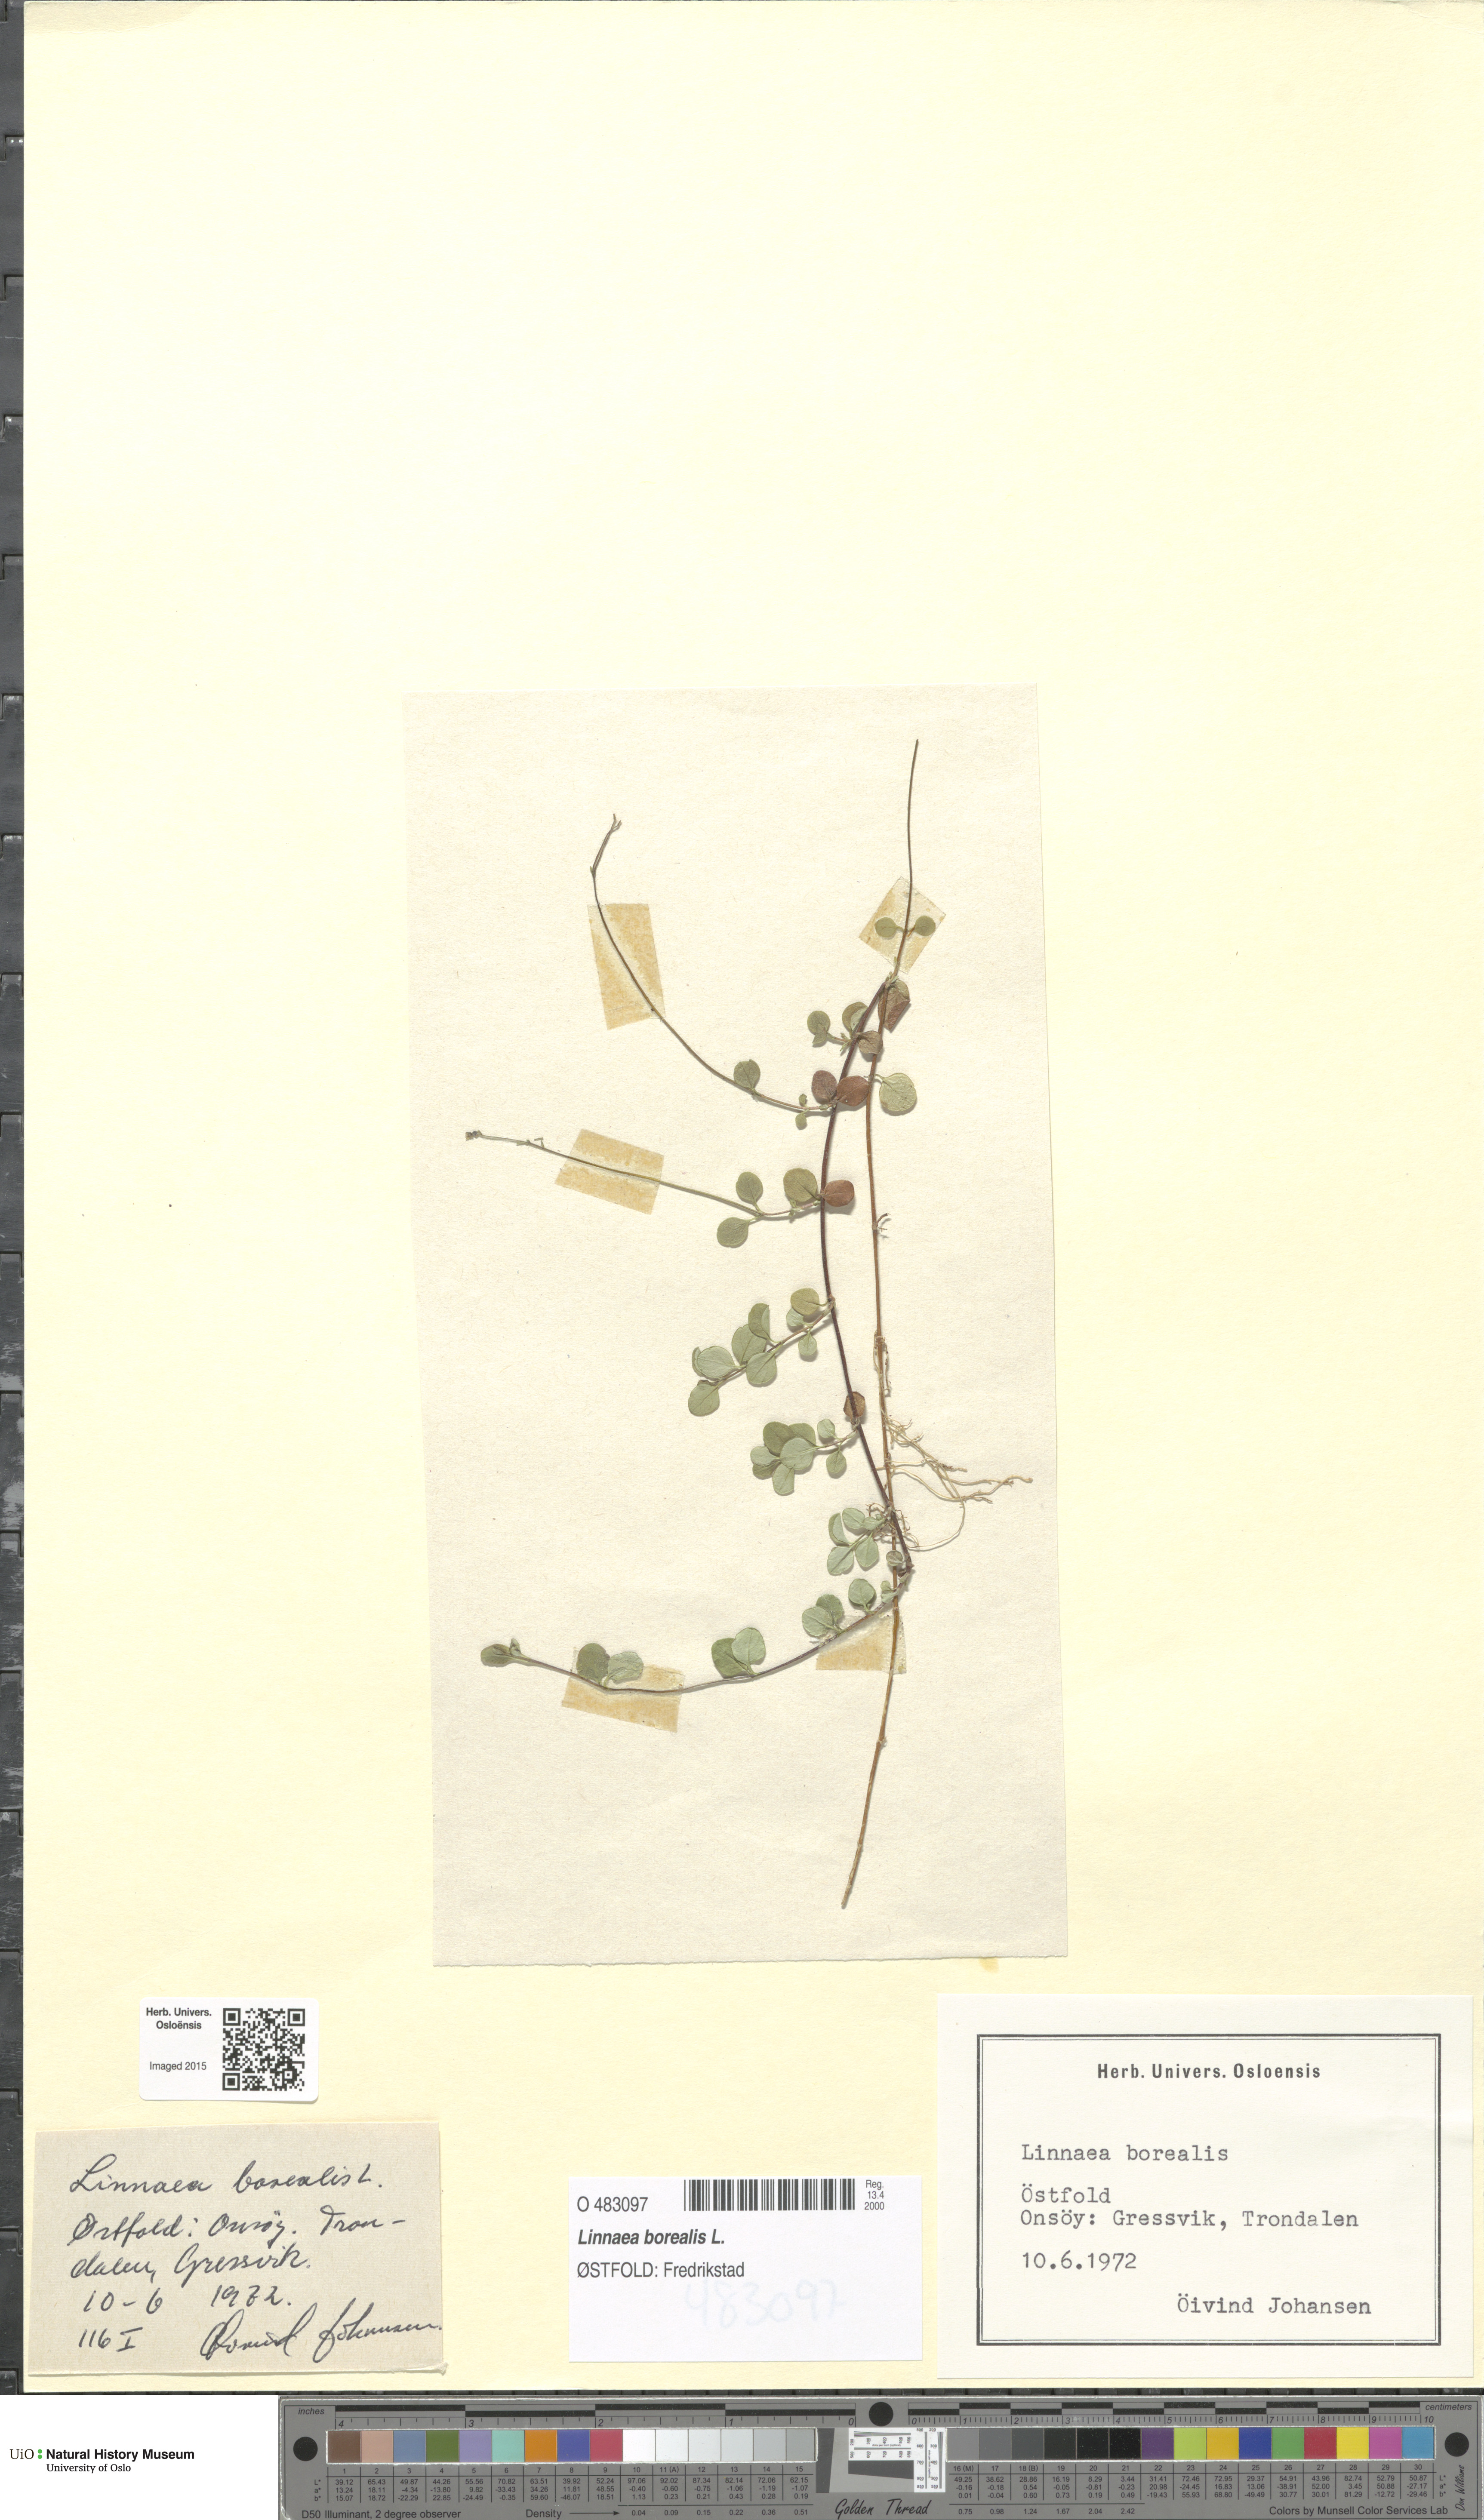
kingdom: Plantae
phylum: Tracheophyta
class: Magnoliopsida
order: Dipsacales
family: Caprifoliaceae
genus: Linnaea
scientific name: Linnaea borealis
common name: Twinflower
